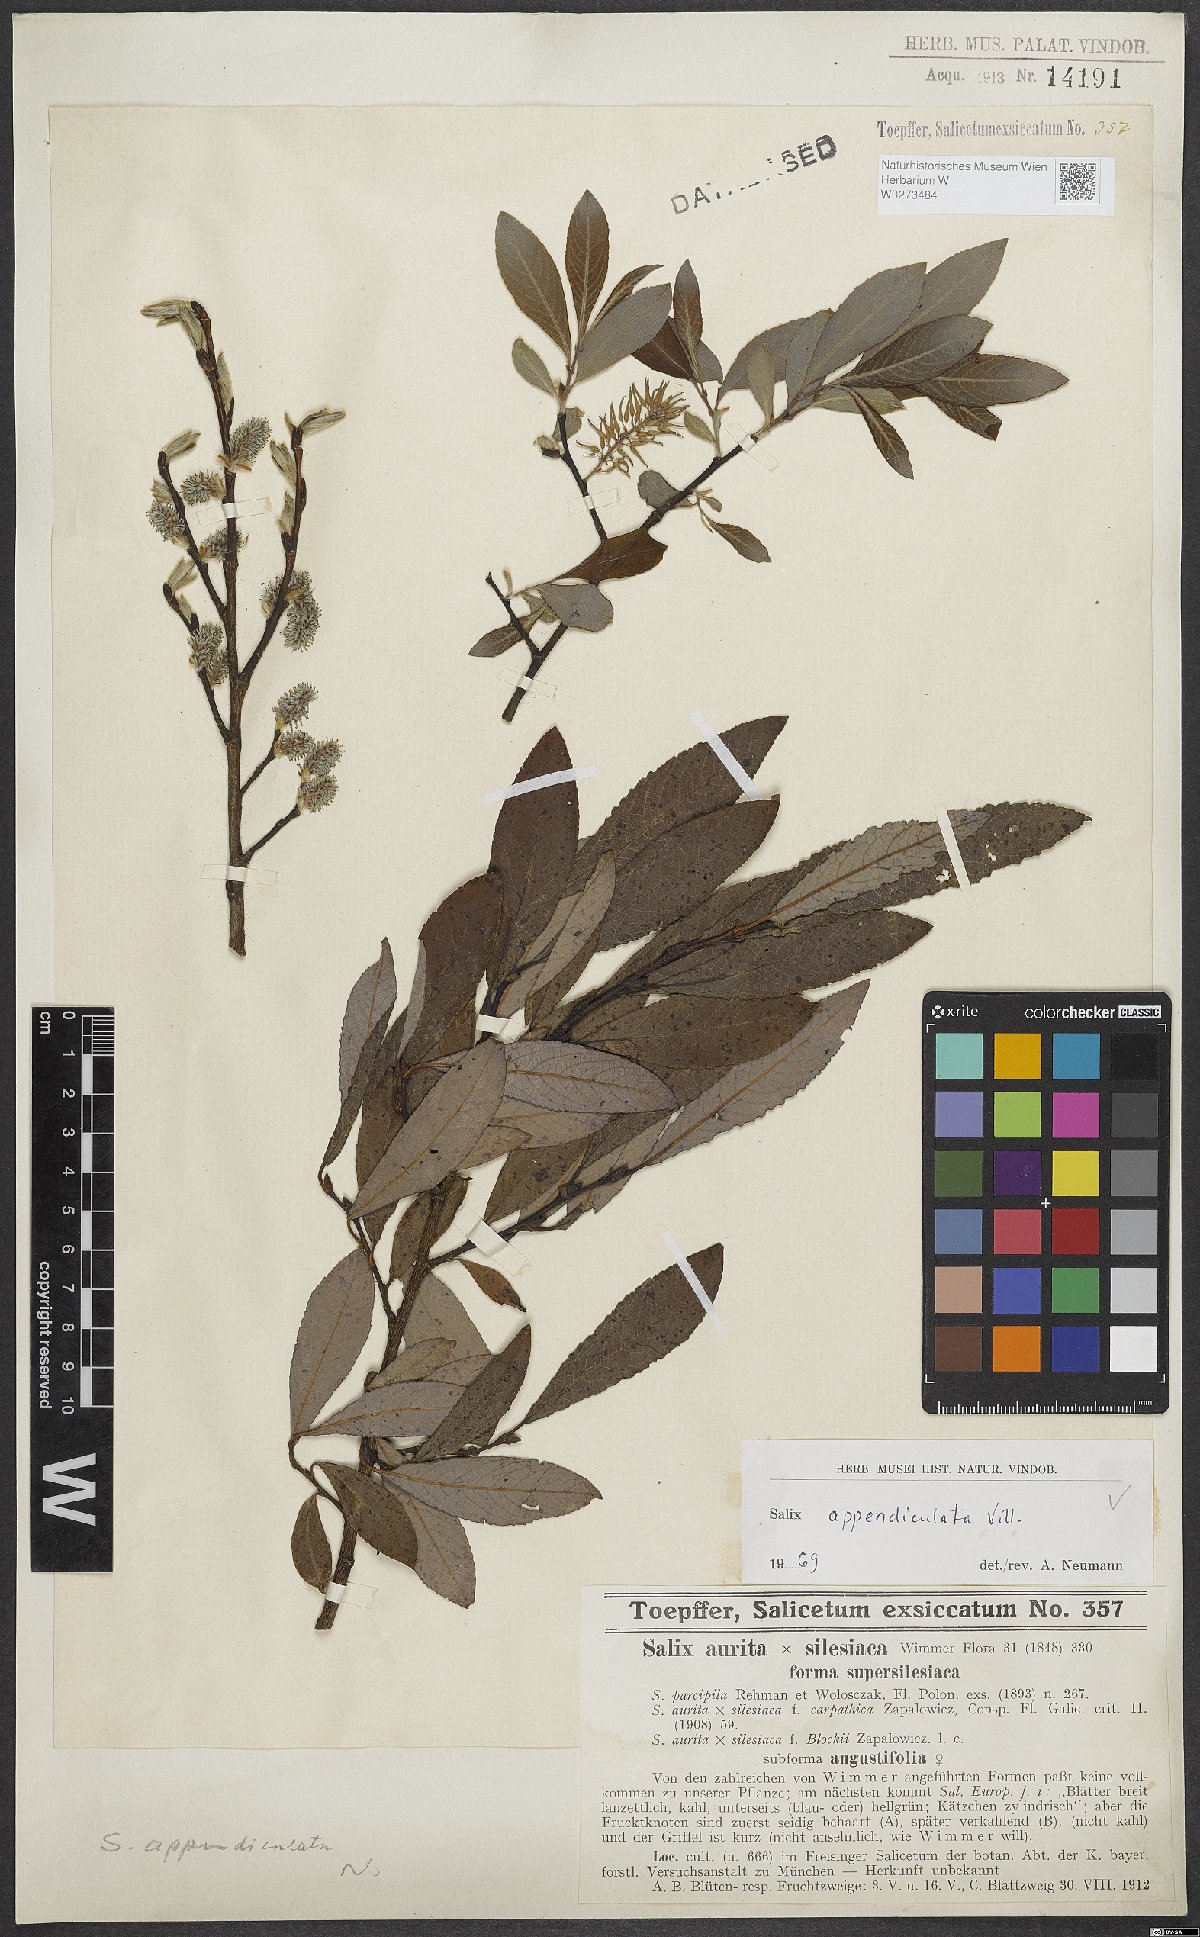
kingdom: Plantae
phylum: Tracheophyta
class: Magnoliopsida
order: Malpighiales
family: Salicaceae
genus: Salix
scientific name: Salix appendiculata
